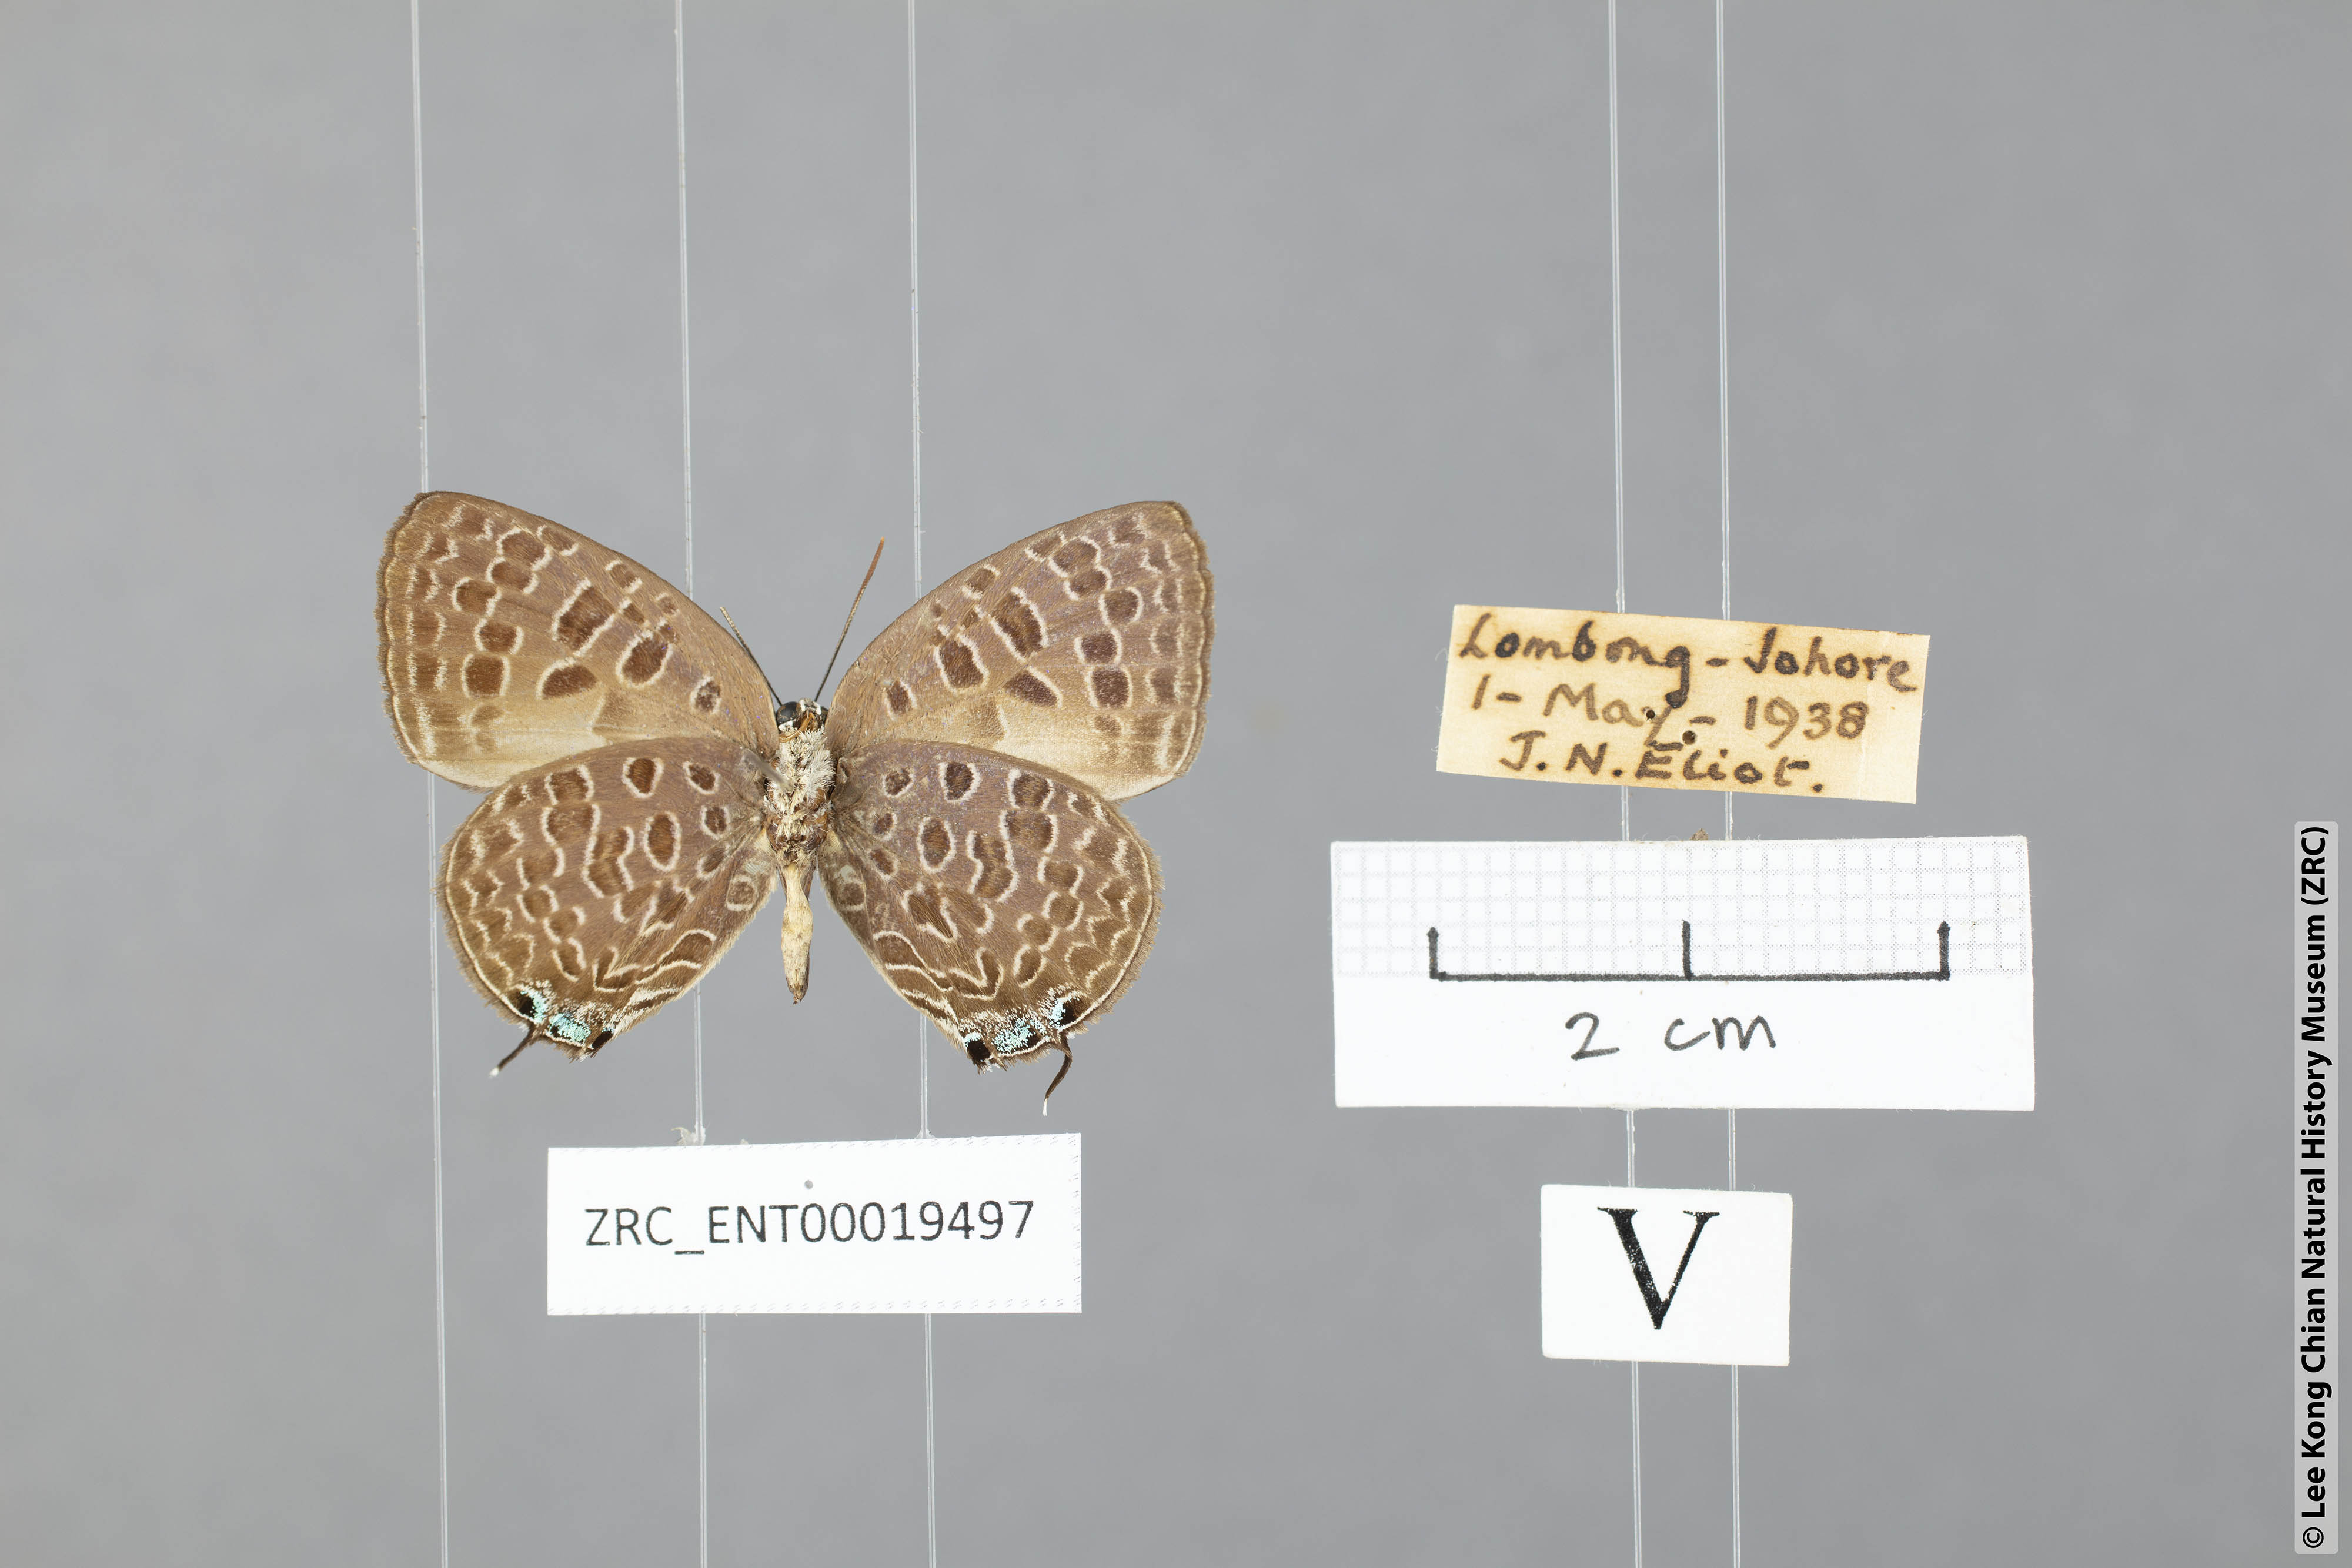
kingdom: Animalia
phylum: Arthropoda
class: Insecta
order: Lepidoptera
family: Lycaenidae
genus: Arhopala
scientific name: Arhopala havilandi
